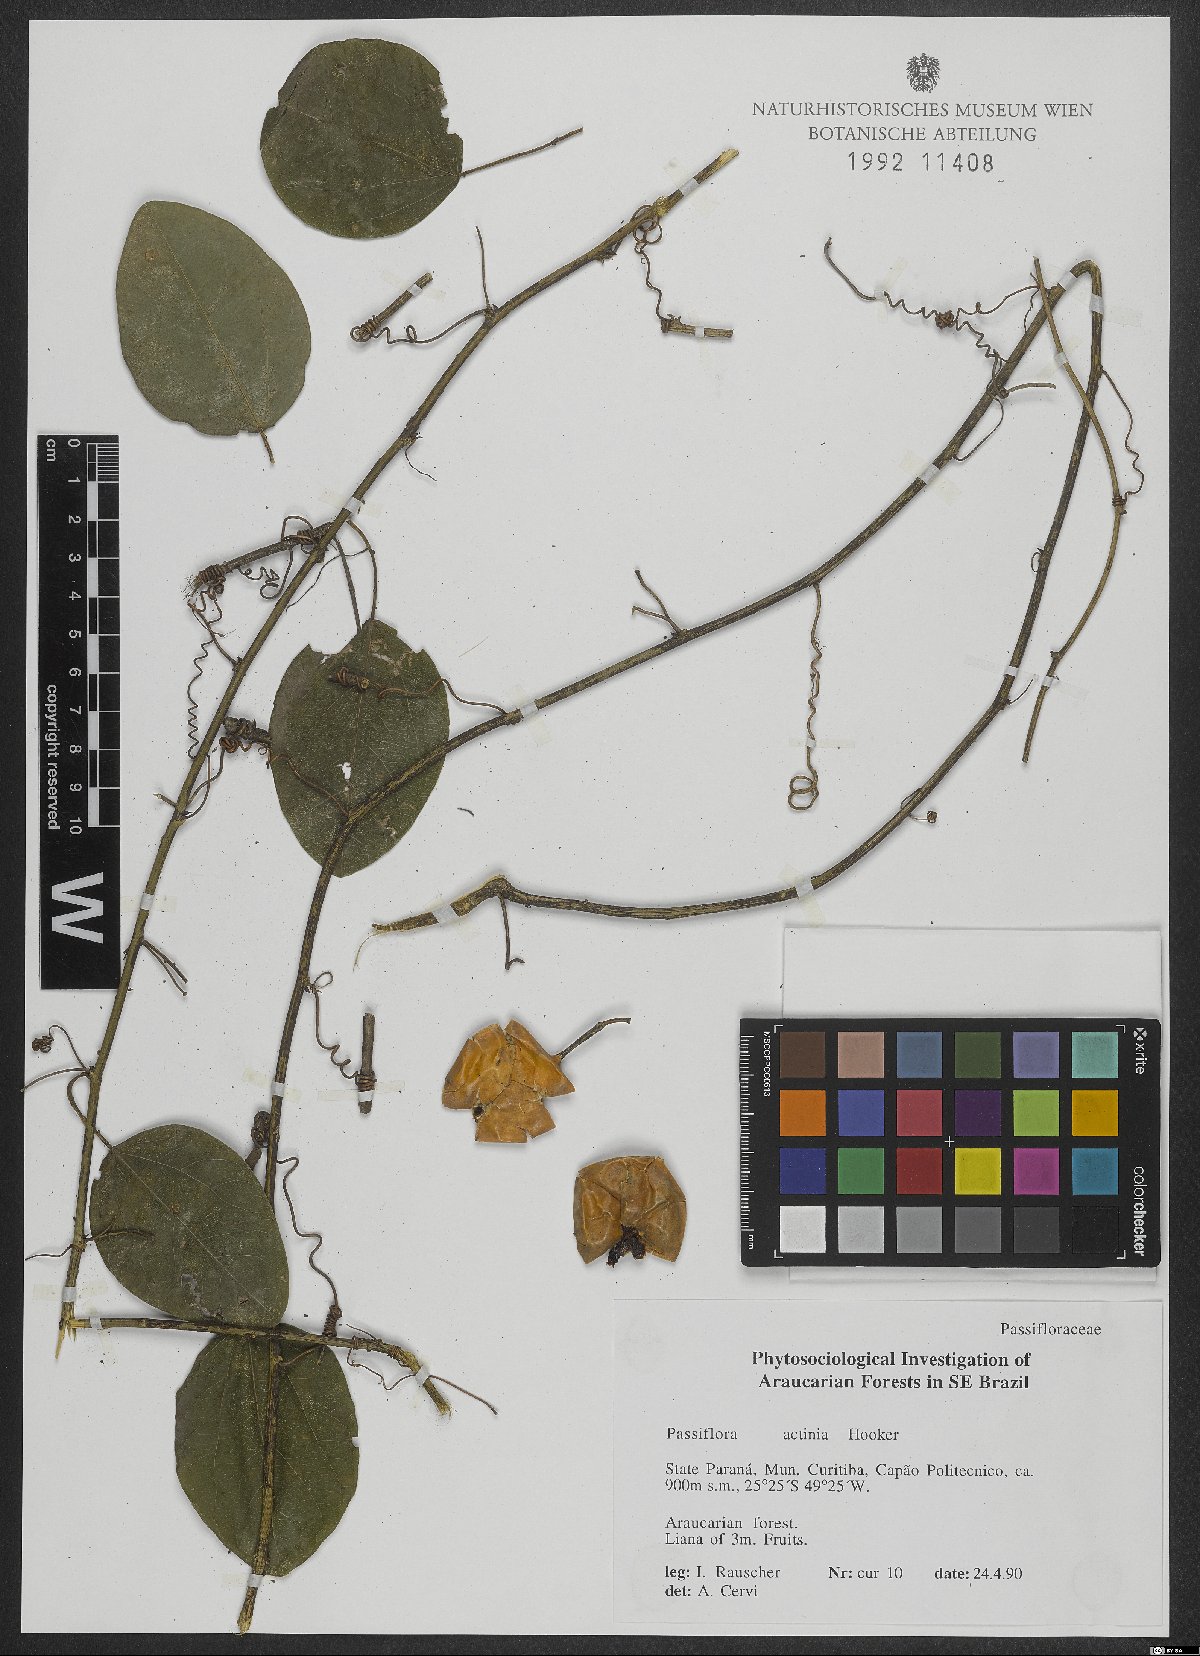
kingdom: Plantae
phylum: Tracheophyta
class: Magnoliopsida
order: Malpighiales
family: Passifloraceae
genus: Passiflora
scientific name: Passiflora actinia
